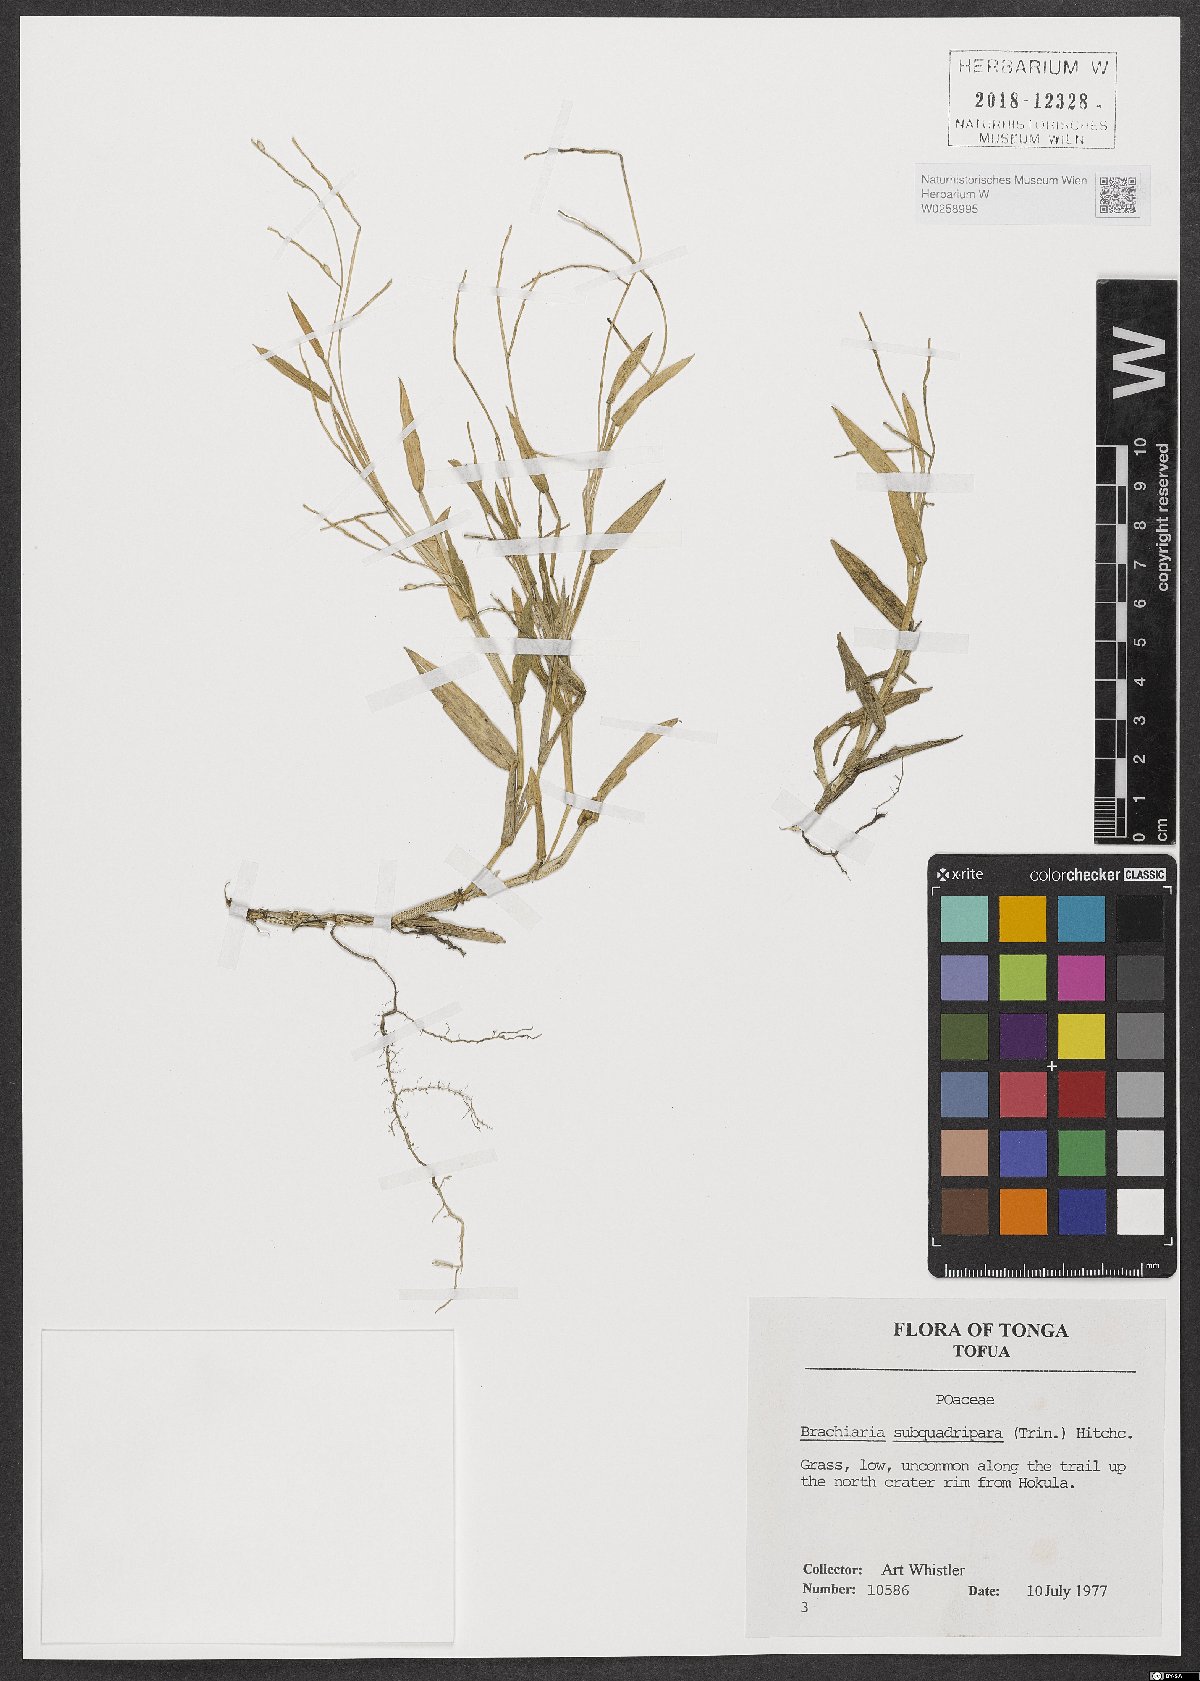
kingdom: Plantae
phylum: Tracheophyta
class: Liliopsida
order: Poales
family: Poaceae
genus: Urochloa
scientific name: Urochloa subquadripara
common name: Armgrass millet
